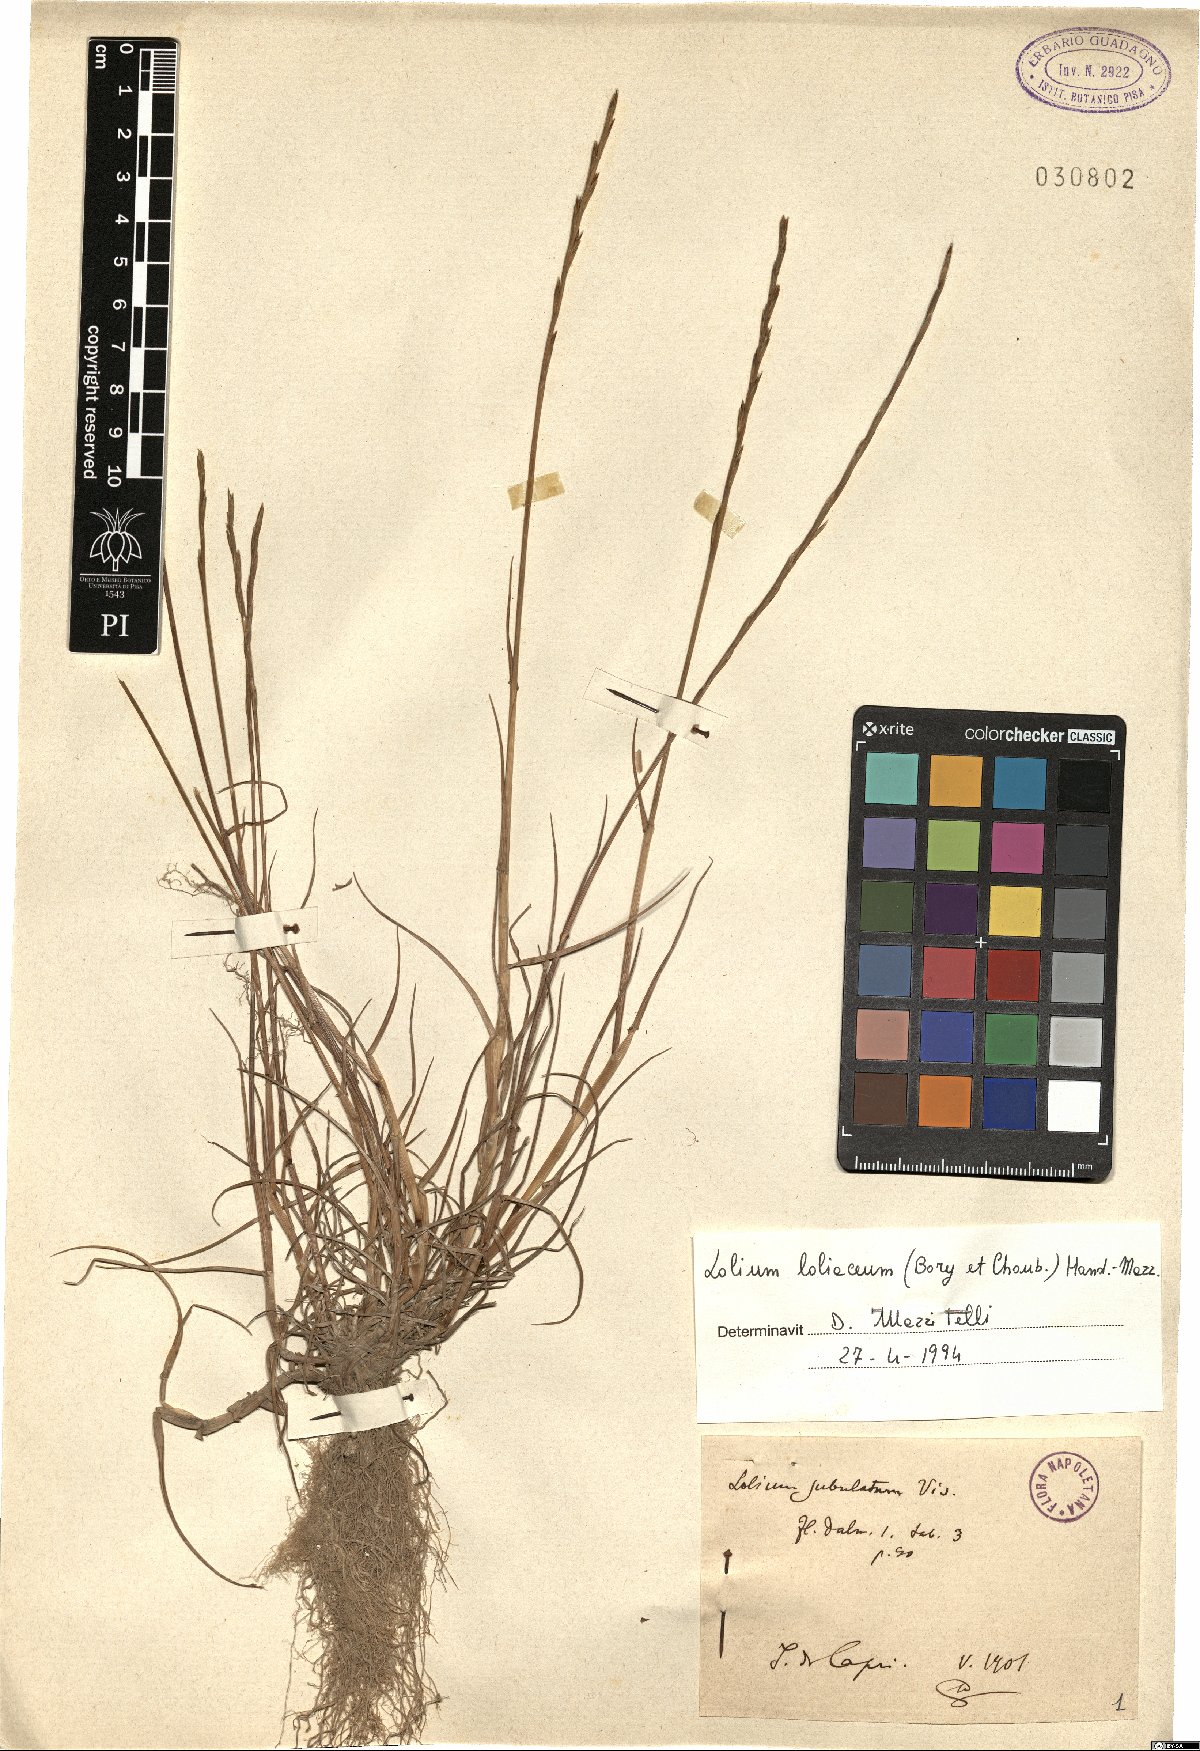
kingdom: Plantae
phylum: Tracheophyta
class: Liliopsida
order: Poales
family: Poaceae
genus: Lolium
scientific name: Lolium rigidum
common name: Wimmera ryegrass
